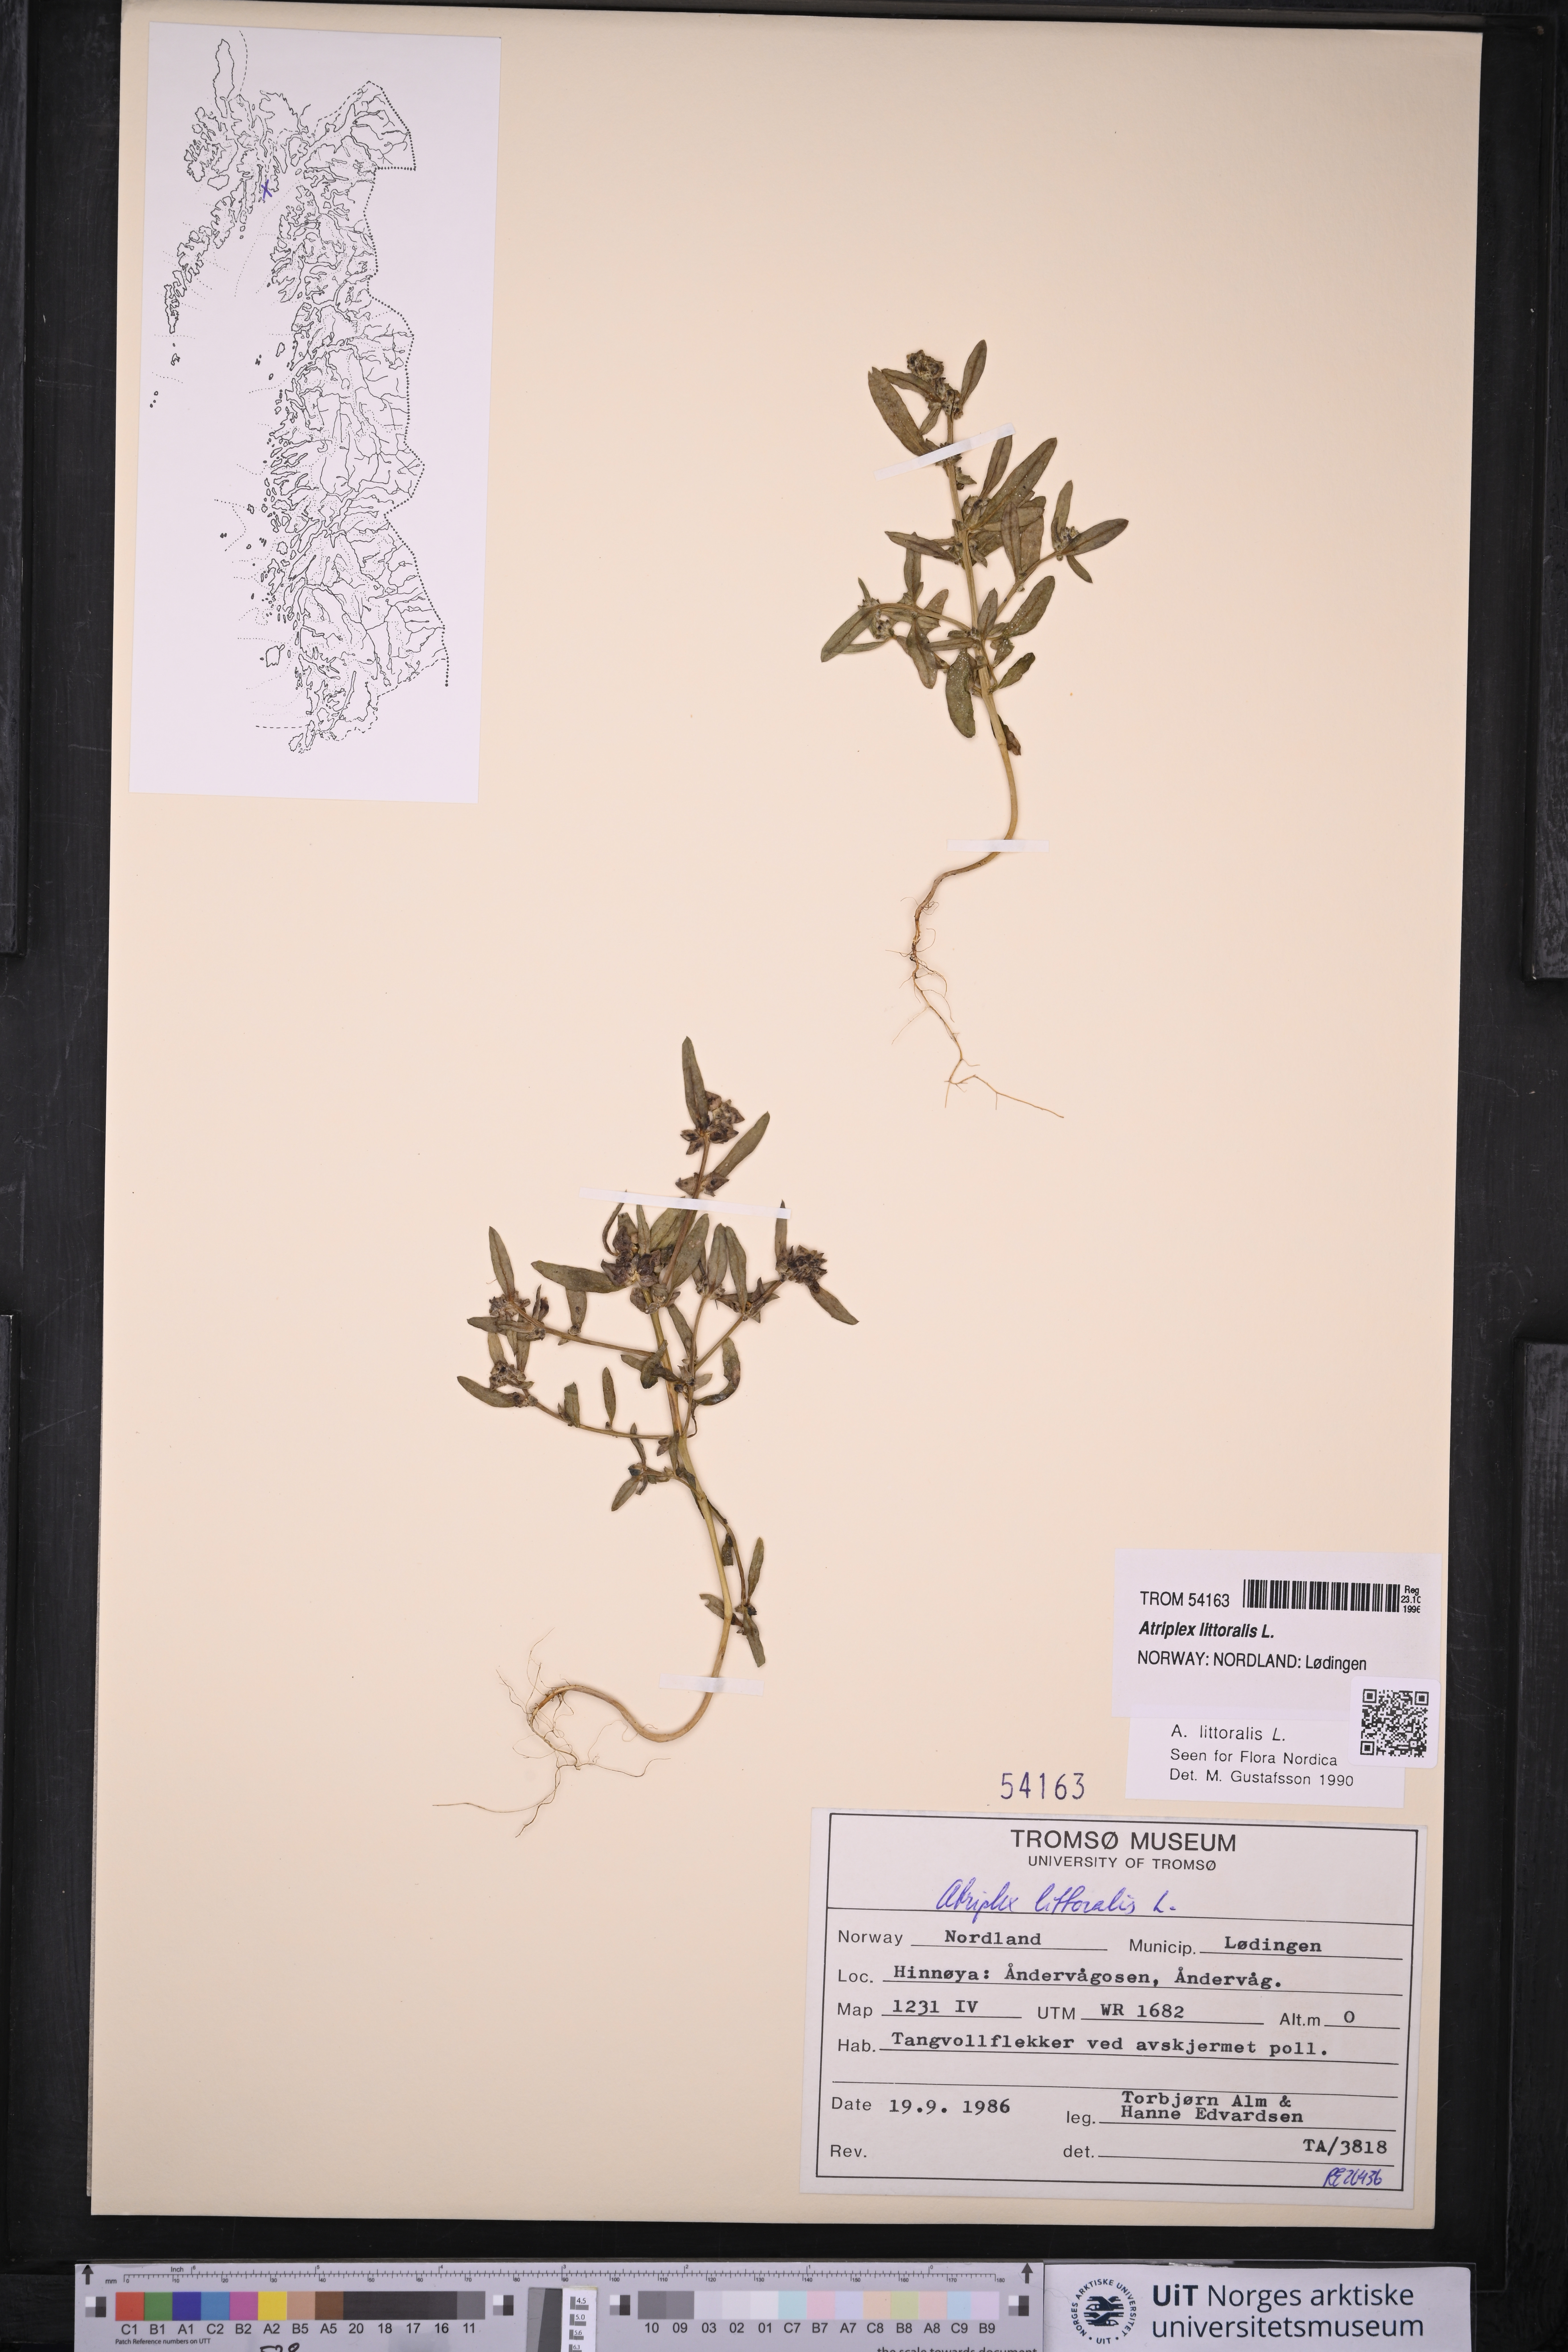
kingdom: Plantae
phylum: Tracheophyta
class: Magnoliopsida
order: Caryophyllales
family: Amaranthaceae
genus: Atriplex
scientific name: Atriplex littoralis
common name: Grass-leaved orache
